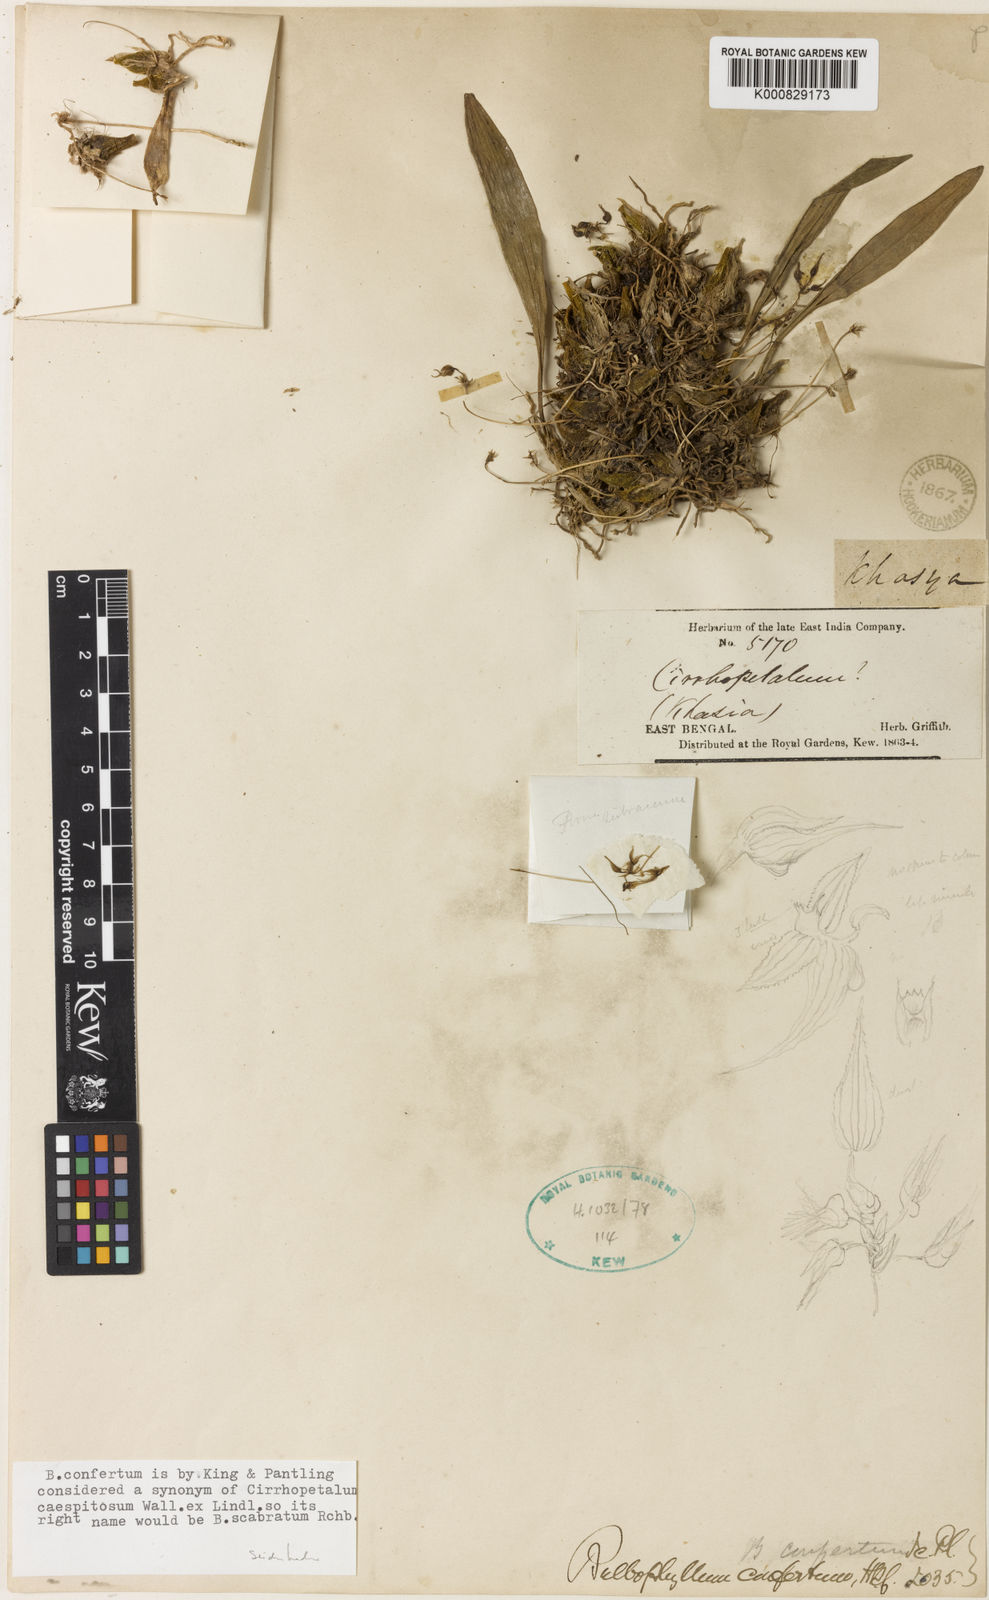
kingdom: Plantae
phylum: Tracheophyta
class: Liliopsida
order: Asparagales
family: Orchidaceae
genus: Bulbophyllum
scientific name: Bulbophyllum scabratum
